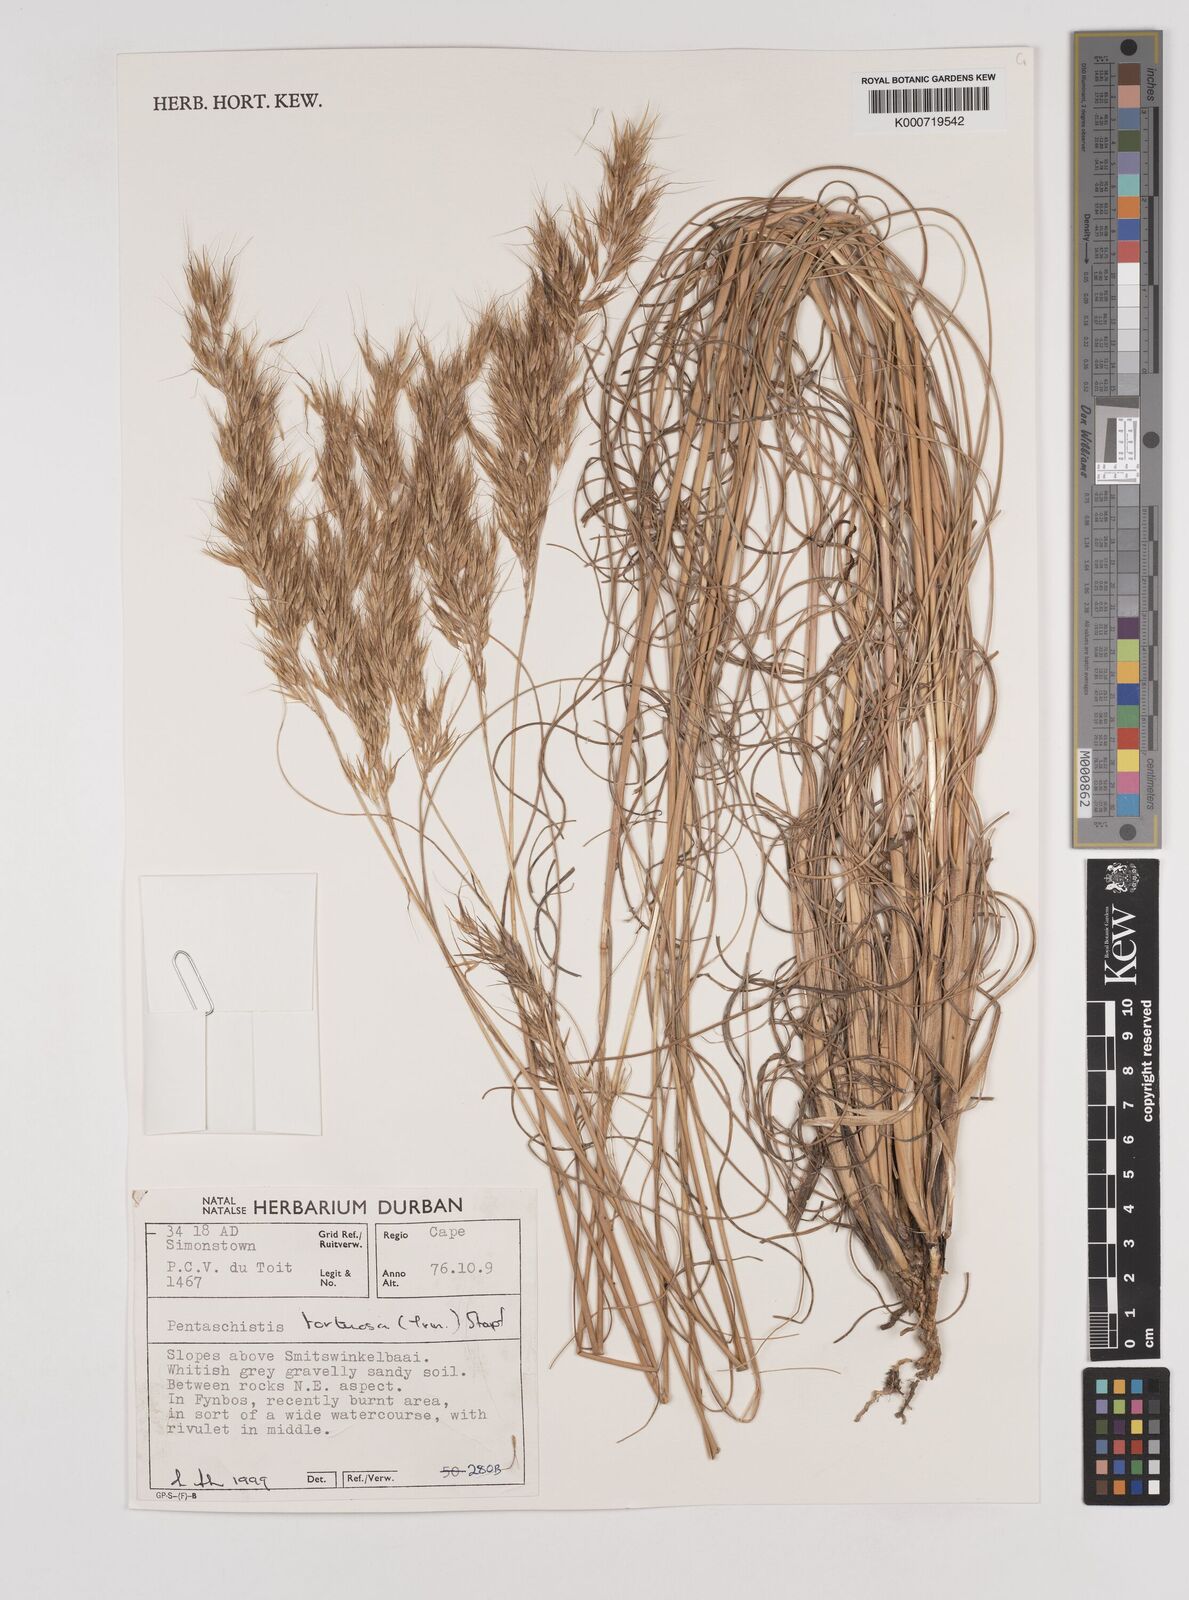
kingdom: Plantae
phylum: Tracheophyta
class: Liliopsida
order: Poales
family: Poaceae
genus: Pentameris
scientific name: Pentameris tortuosa
